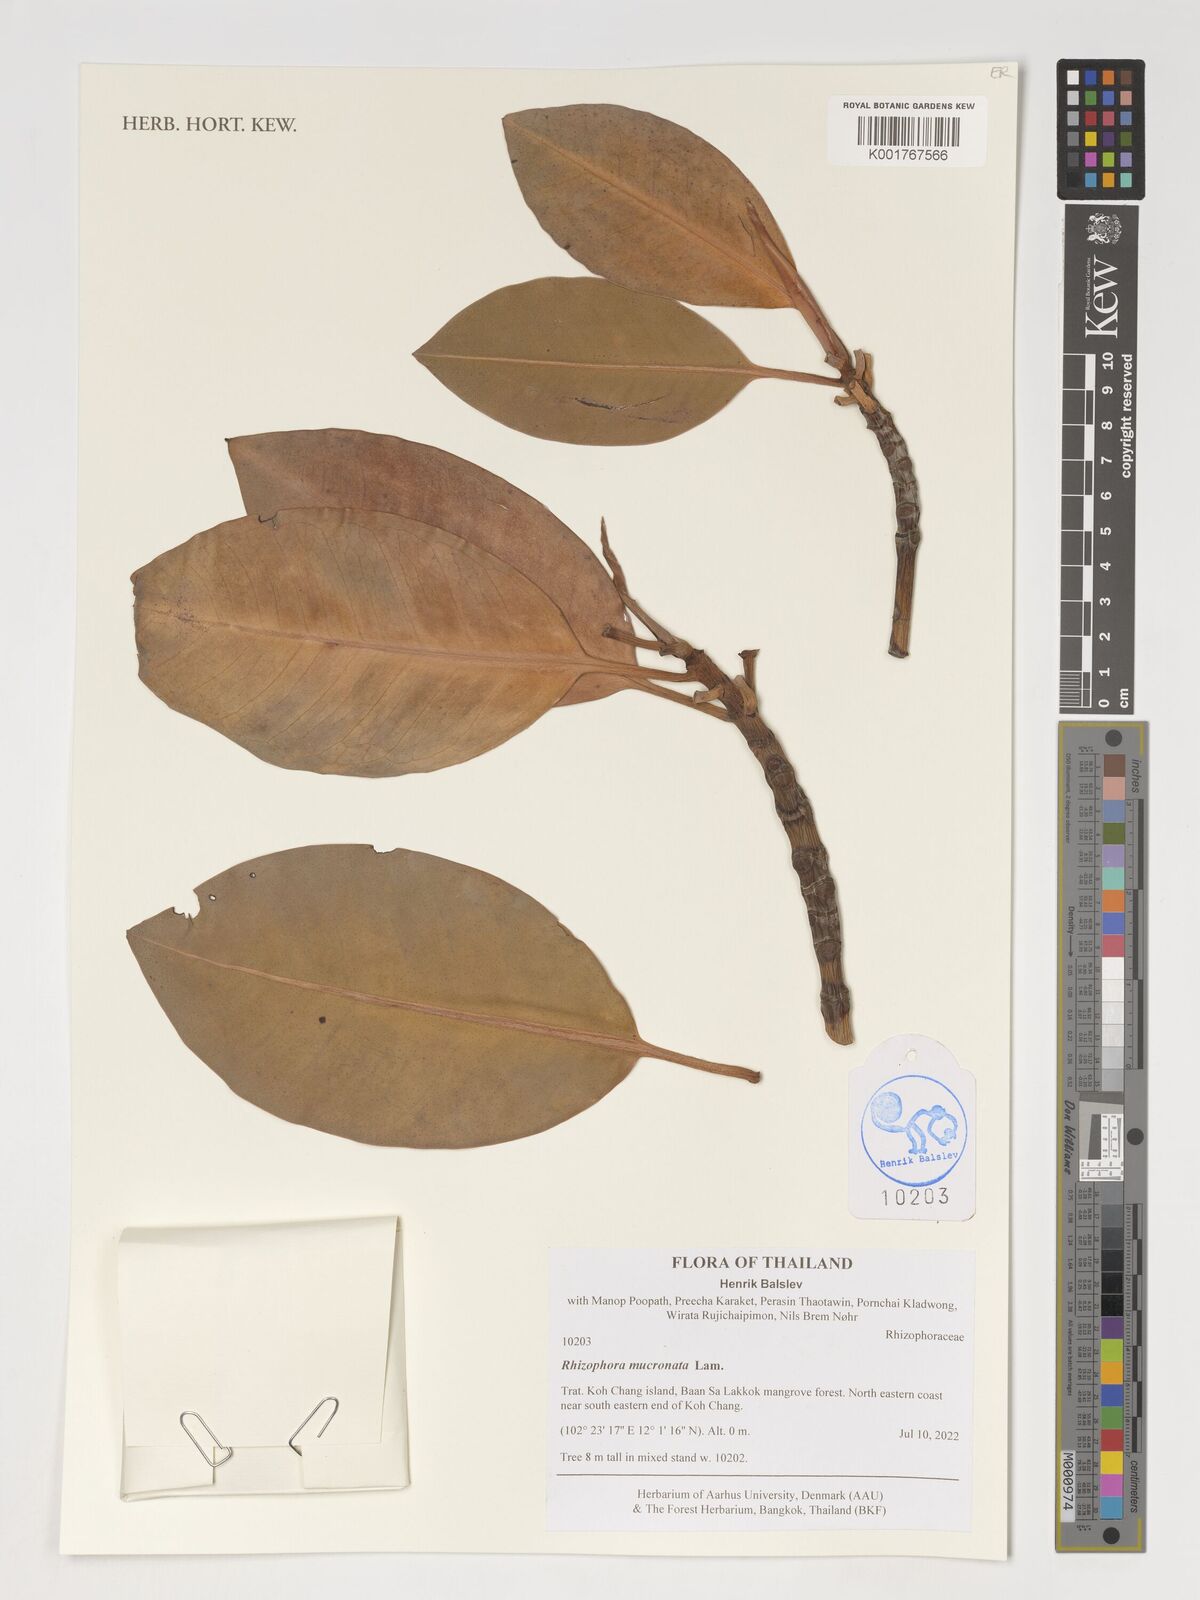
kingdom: Plantae
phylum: Tracheophyta
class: Magnoliopsida
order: Malpighiales
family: Rhizophoraceae
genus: Rhizophora
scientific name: Rhizophora mucronata
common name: Loop-root mangrove
